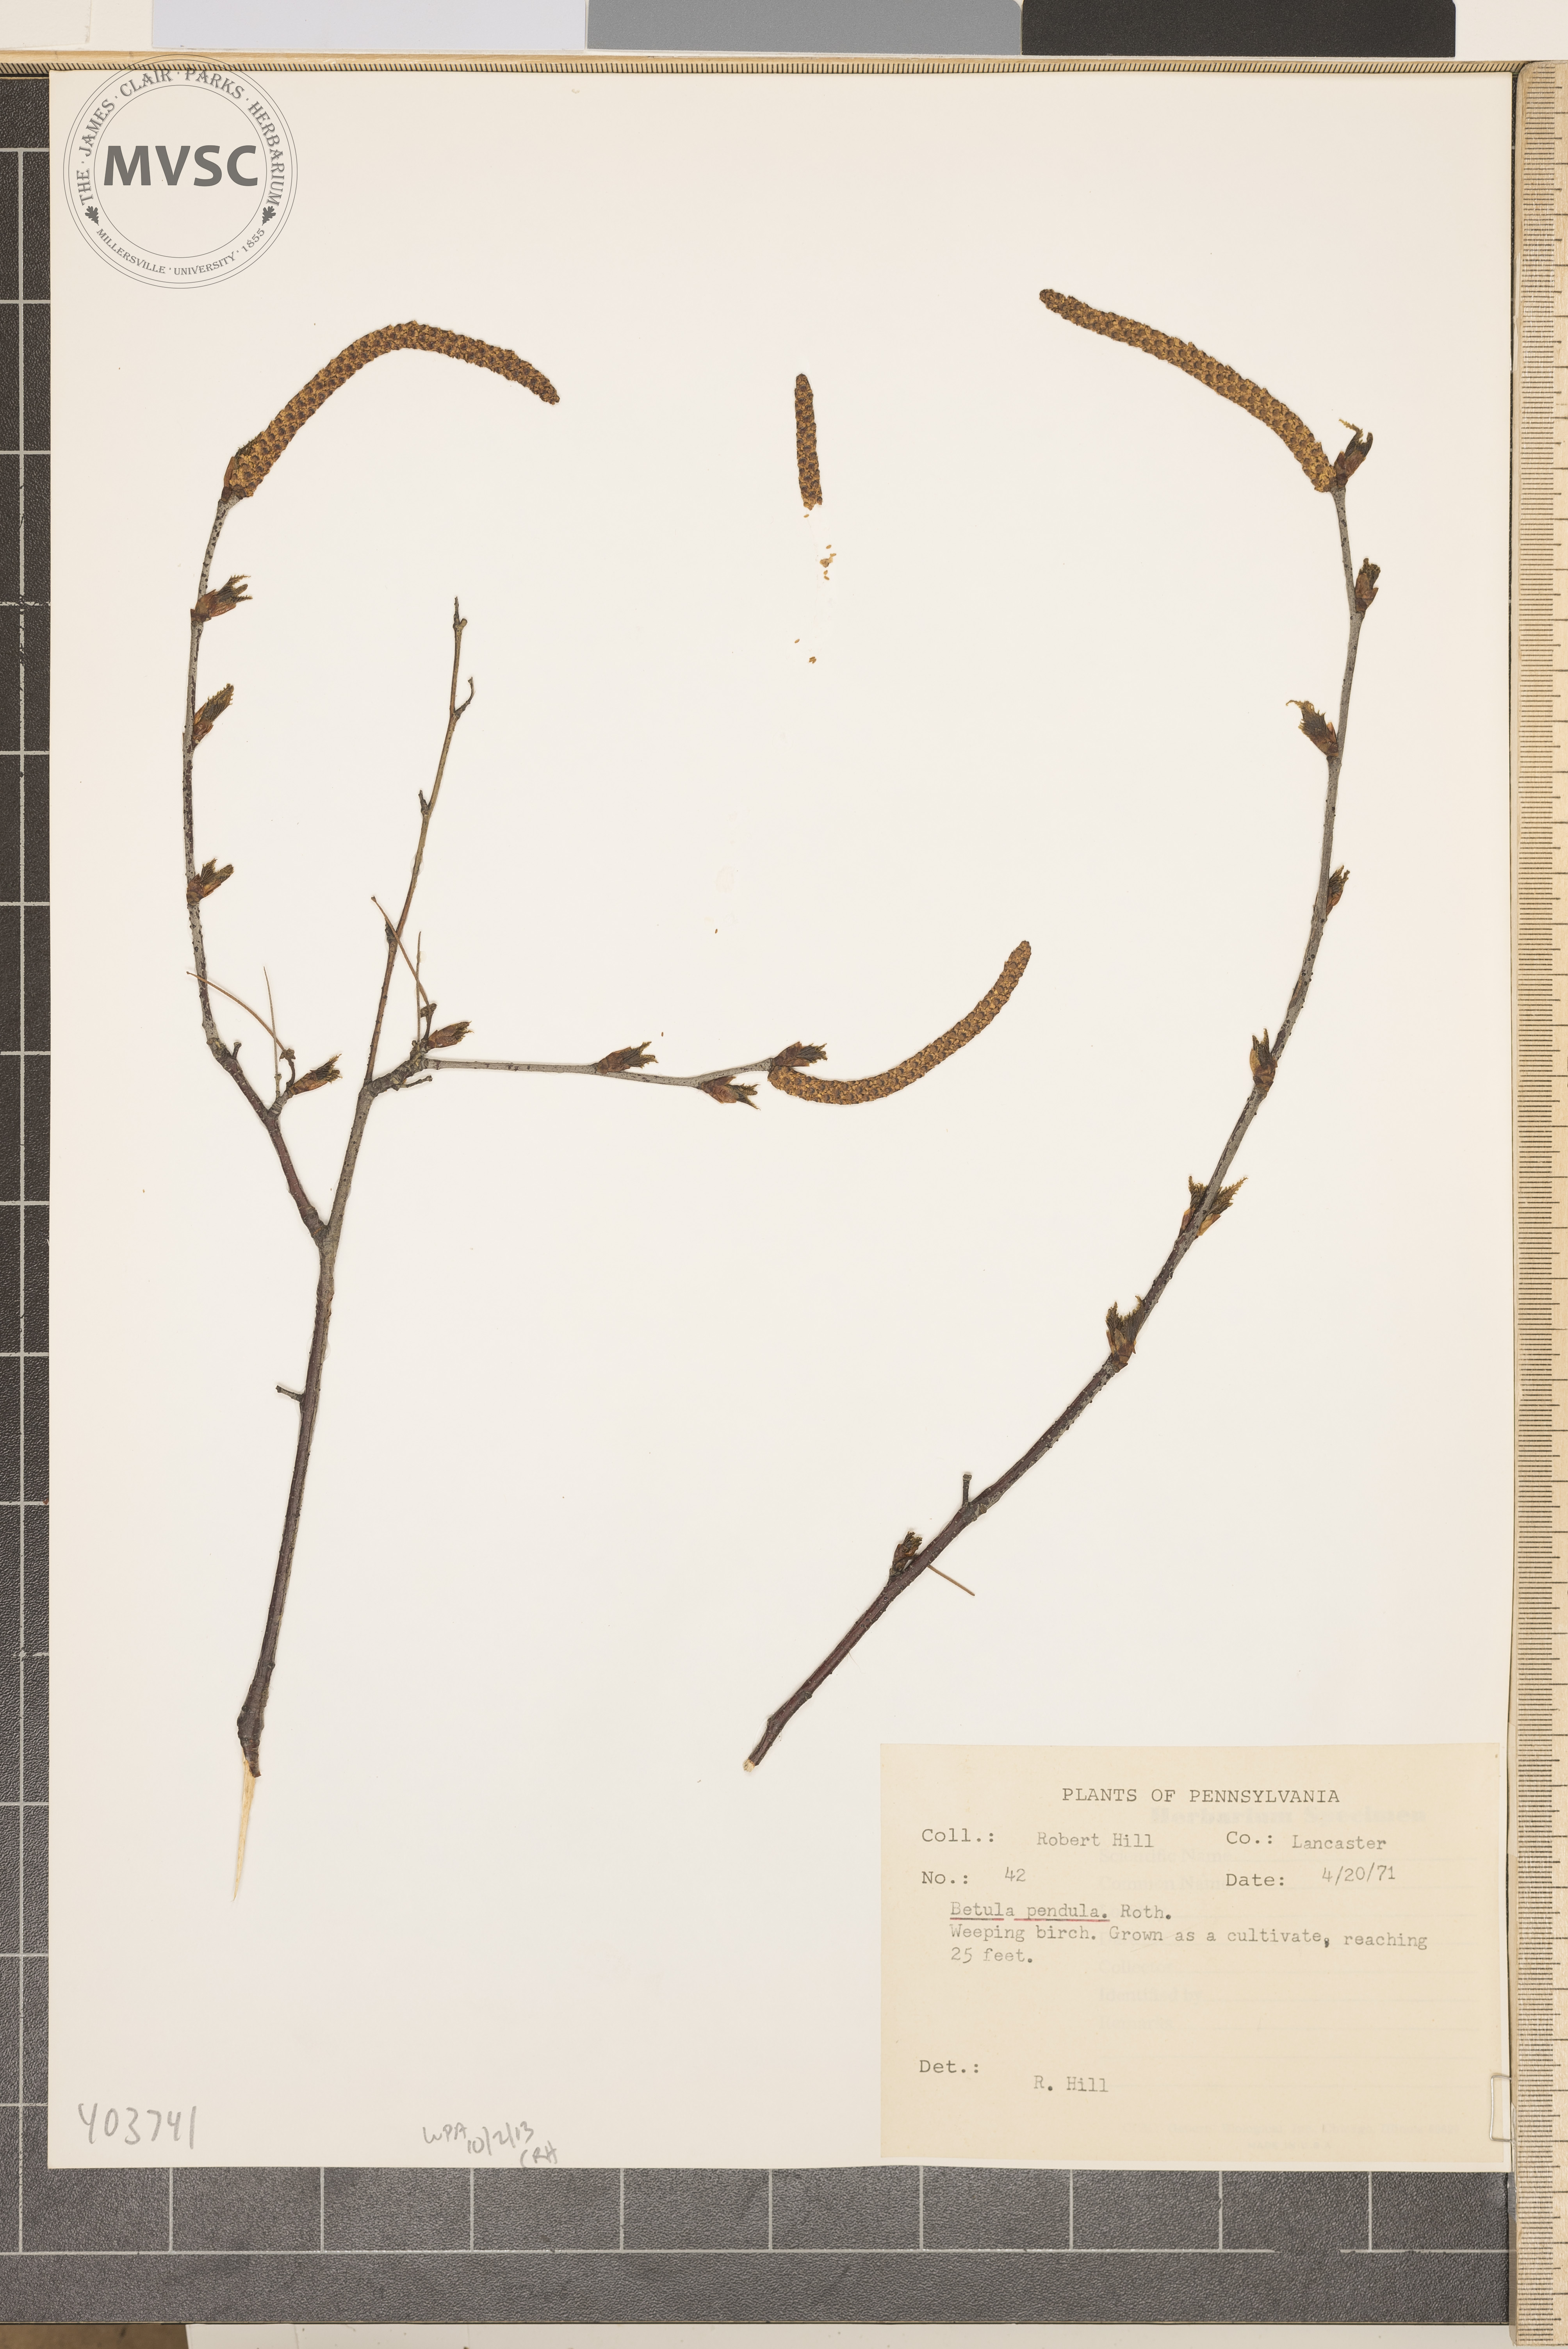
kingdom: Plantae
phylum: Tracheophyta
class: Magnoliopsida
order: Fagales
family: Betulaceae
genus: Betula
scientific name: Betula pendula
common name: Weeping Birch
